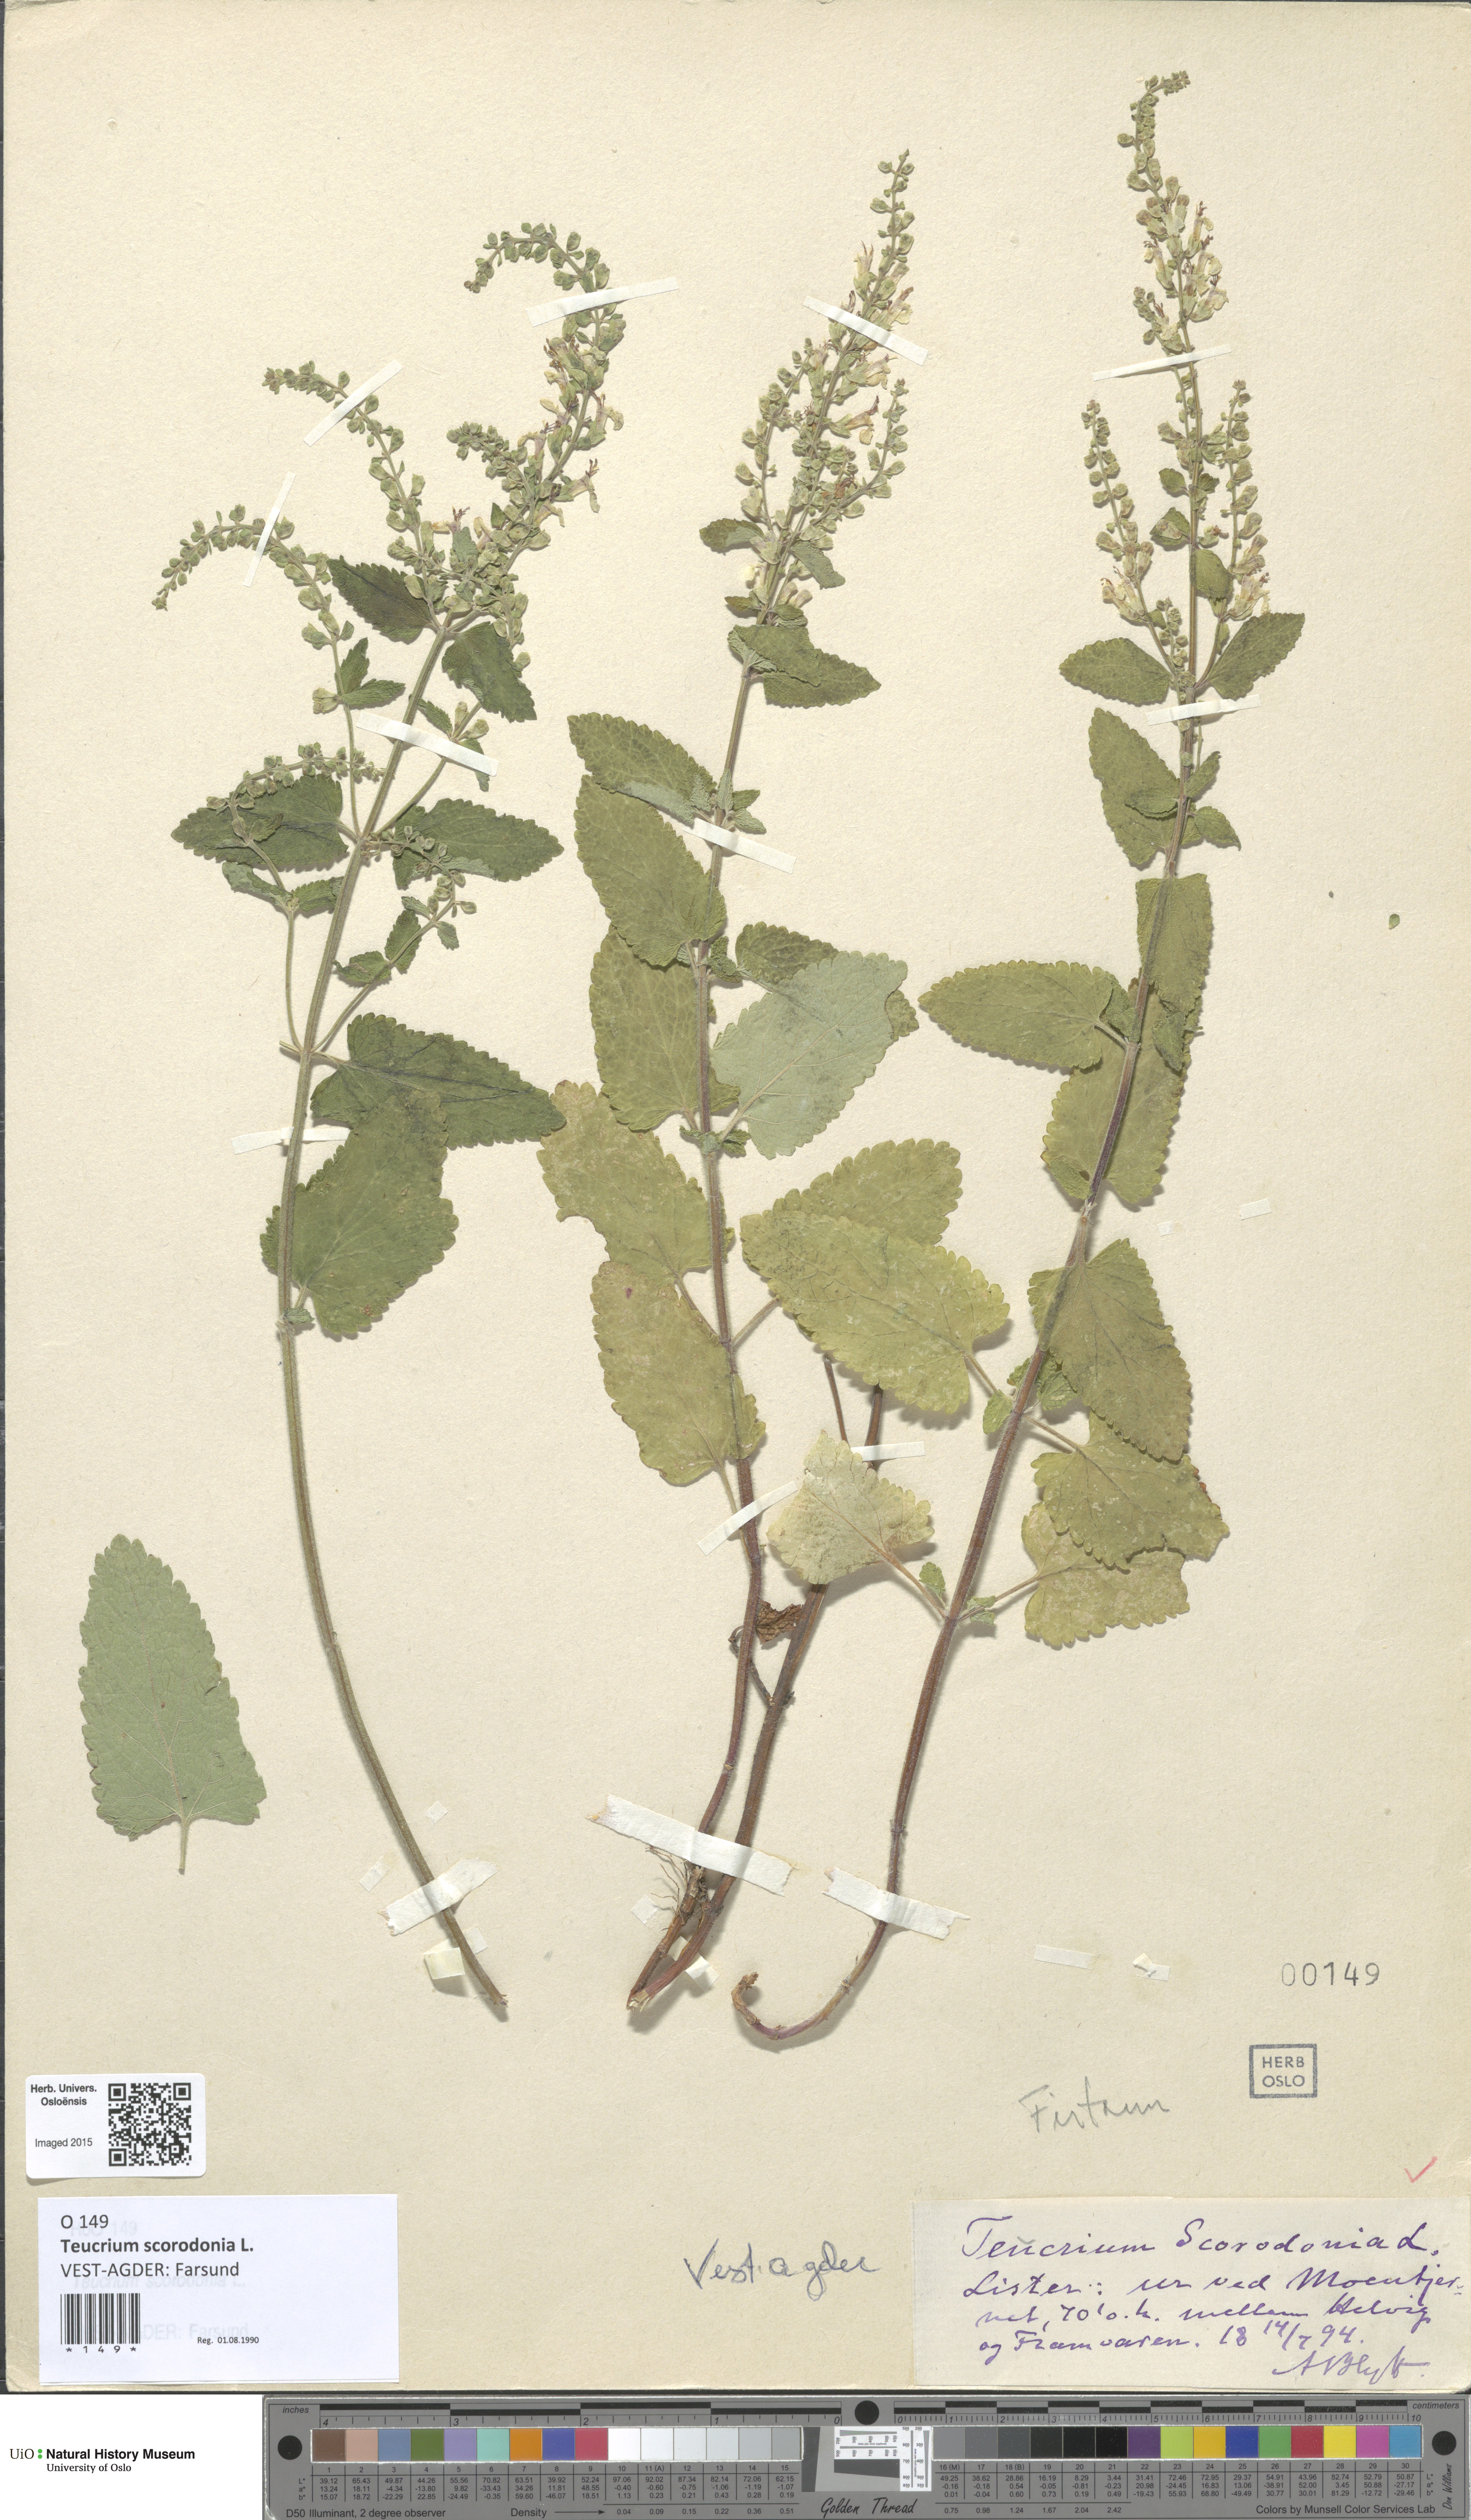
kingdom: Plantae
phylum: Tracheophyta
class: Magnoliopsida
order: Lamiales
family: Lamiaceae
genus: Teucrium
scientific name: Teucrium scorodonia
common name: Woodland germander
